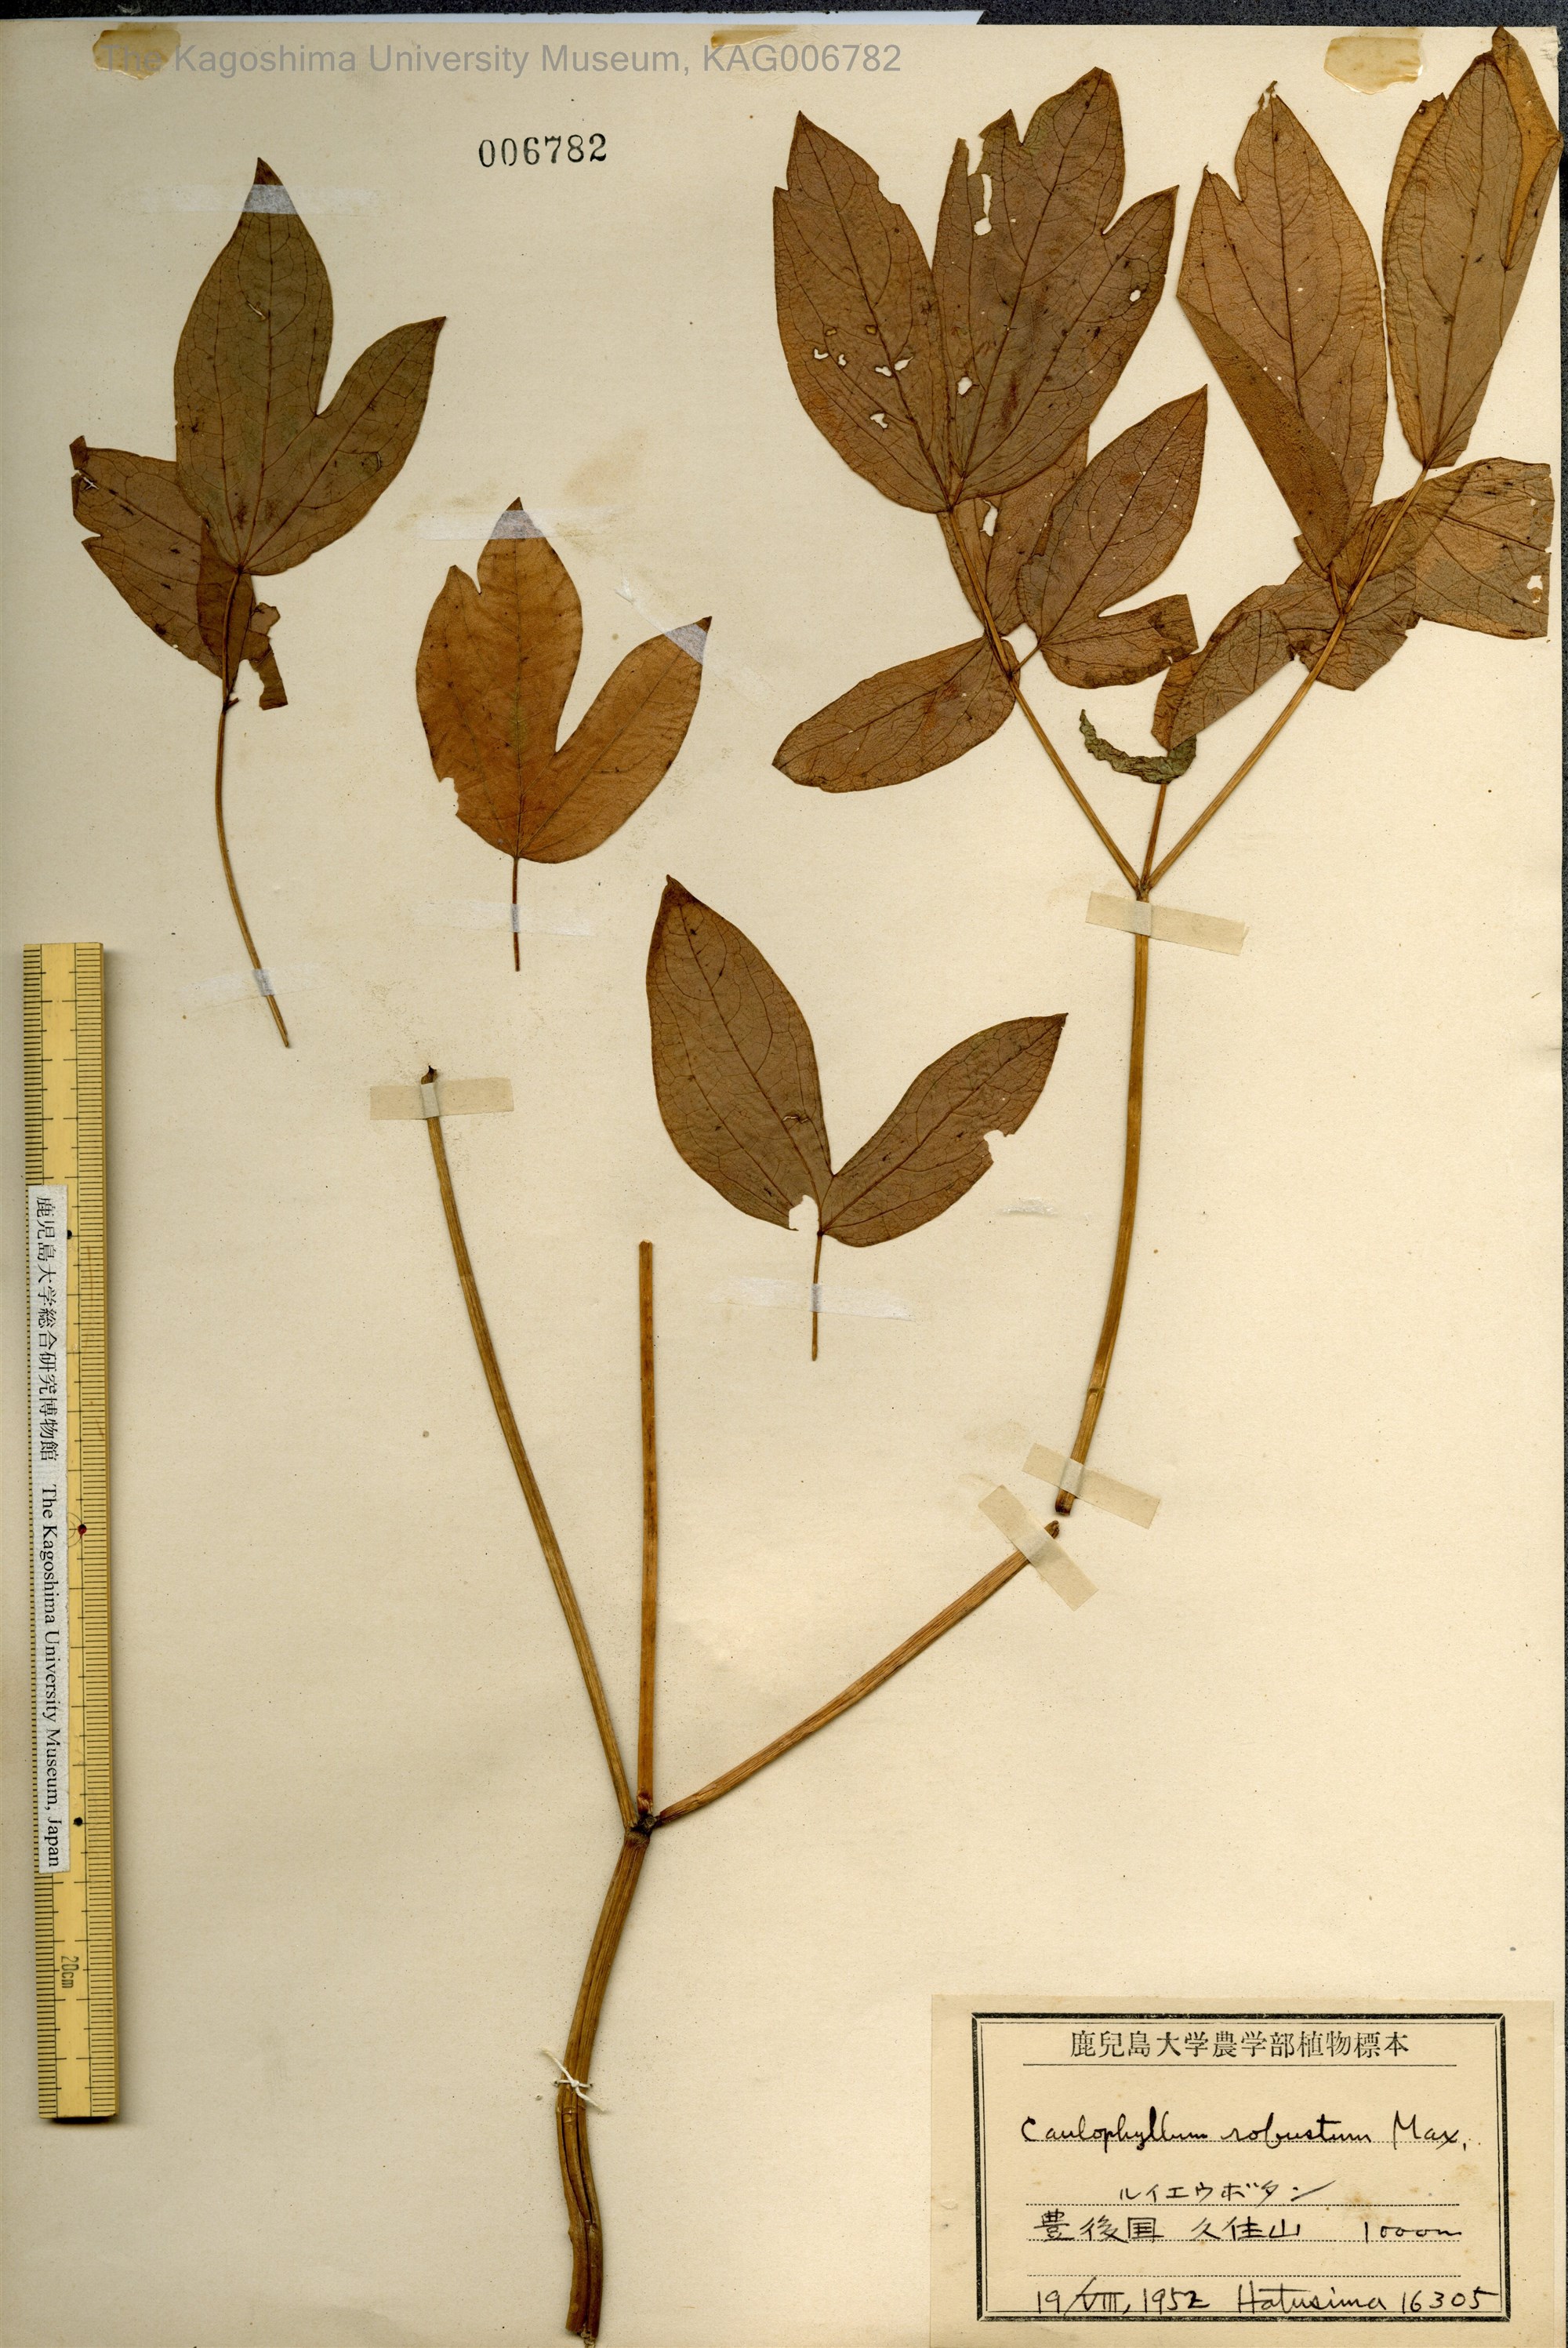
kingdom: Plantae
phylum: Tracheophyta
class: Magnoliopsida
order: Ranunculales
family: Berberidaceae
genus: Caulophyllum
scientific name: Caulophyllum robustum
